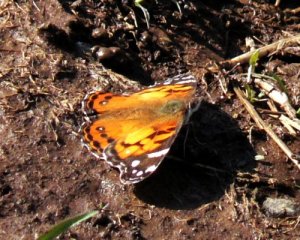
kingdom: Animalia
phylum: Arthropoda
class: Insecta
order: Lepidoptera
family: Nymphalidae
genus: Vanessa
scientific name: Vanessa virginiensis
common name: American Lady
